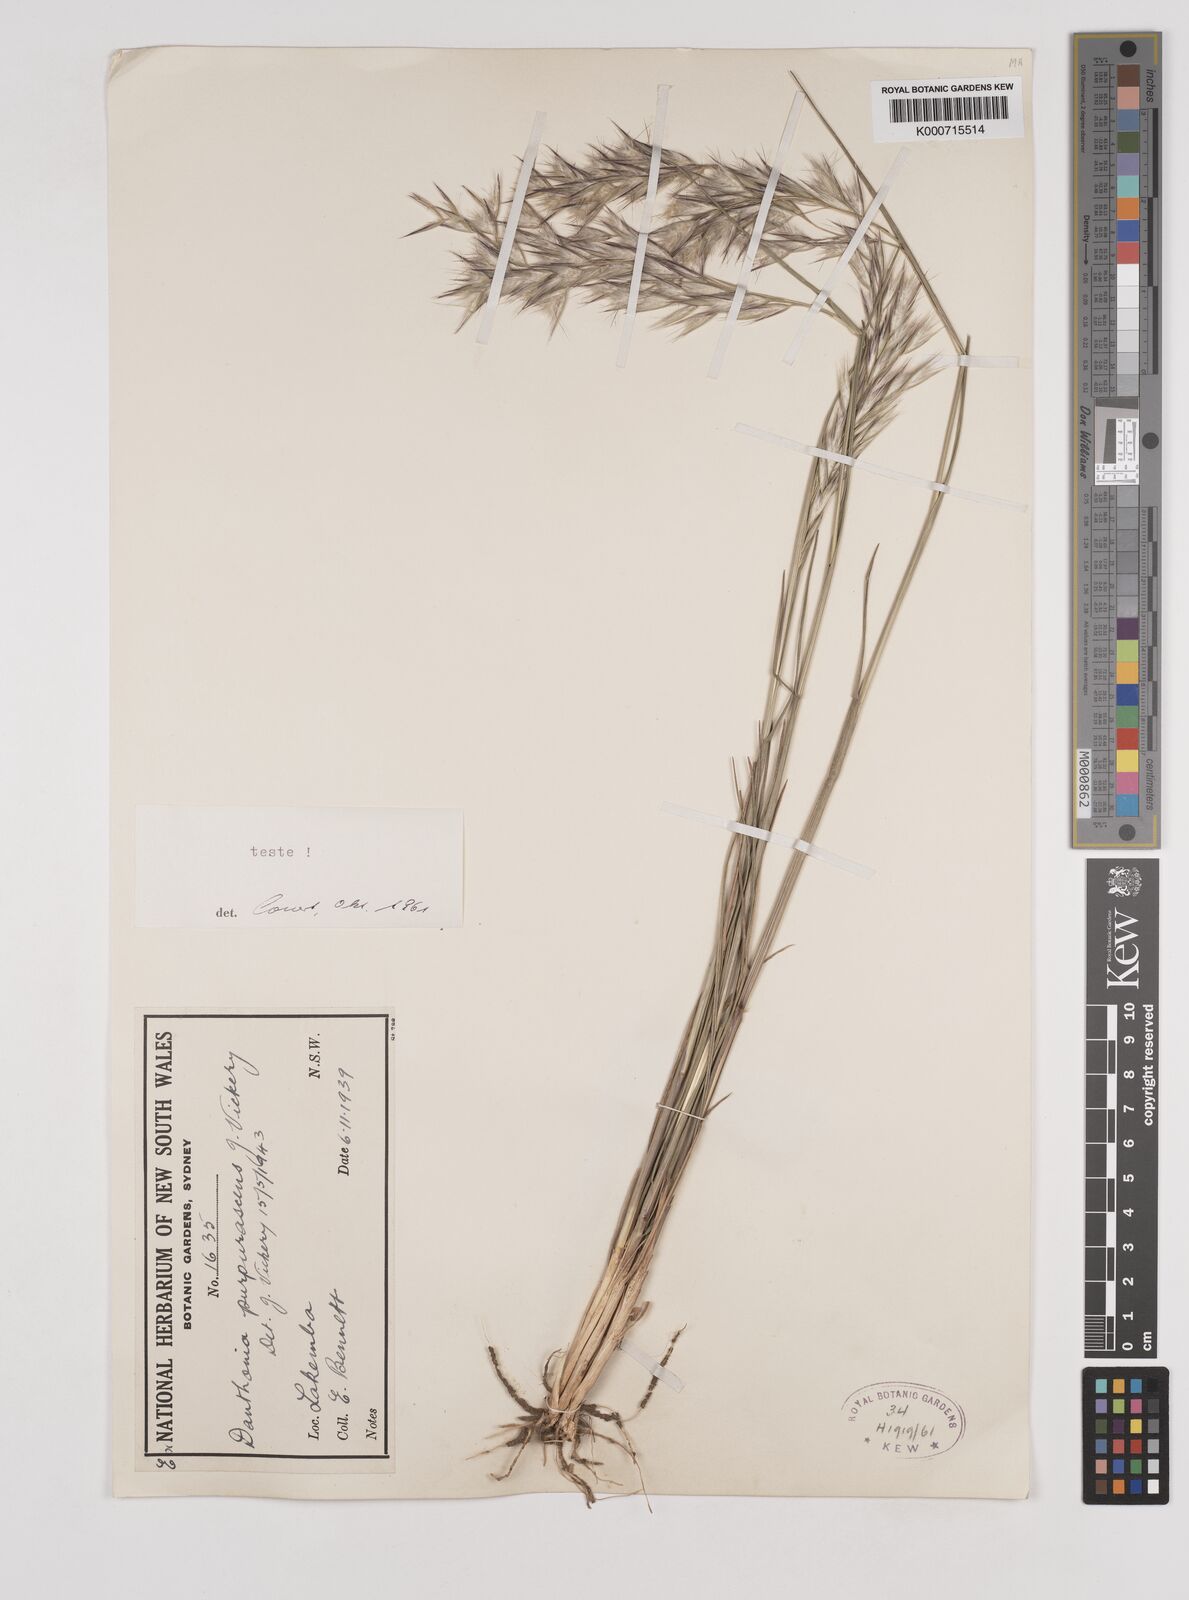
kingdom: Plantae
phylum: Tracheophyta
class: Liliopsida
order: Poales
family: Poaceae
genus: Rytidosperma
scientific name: Rytidosperma tenuius
